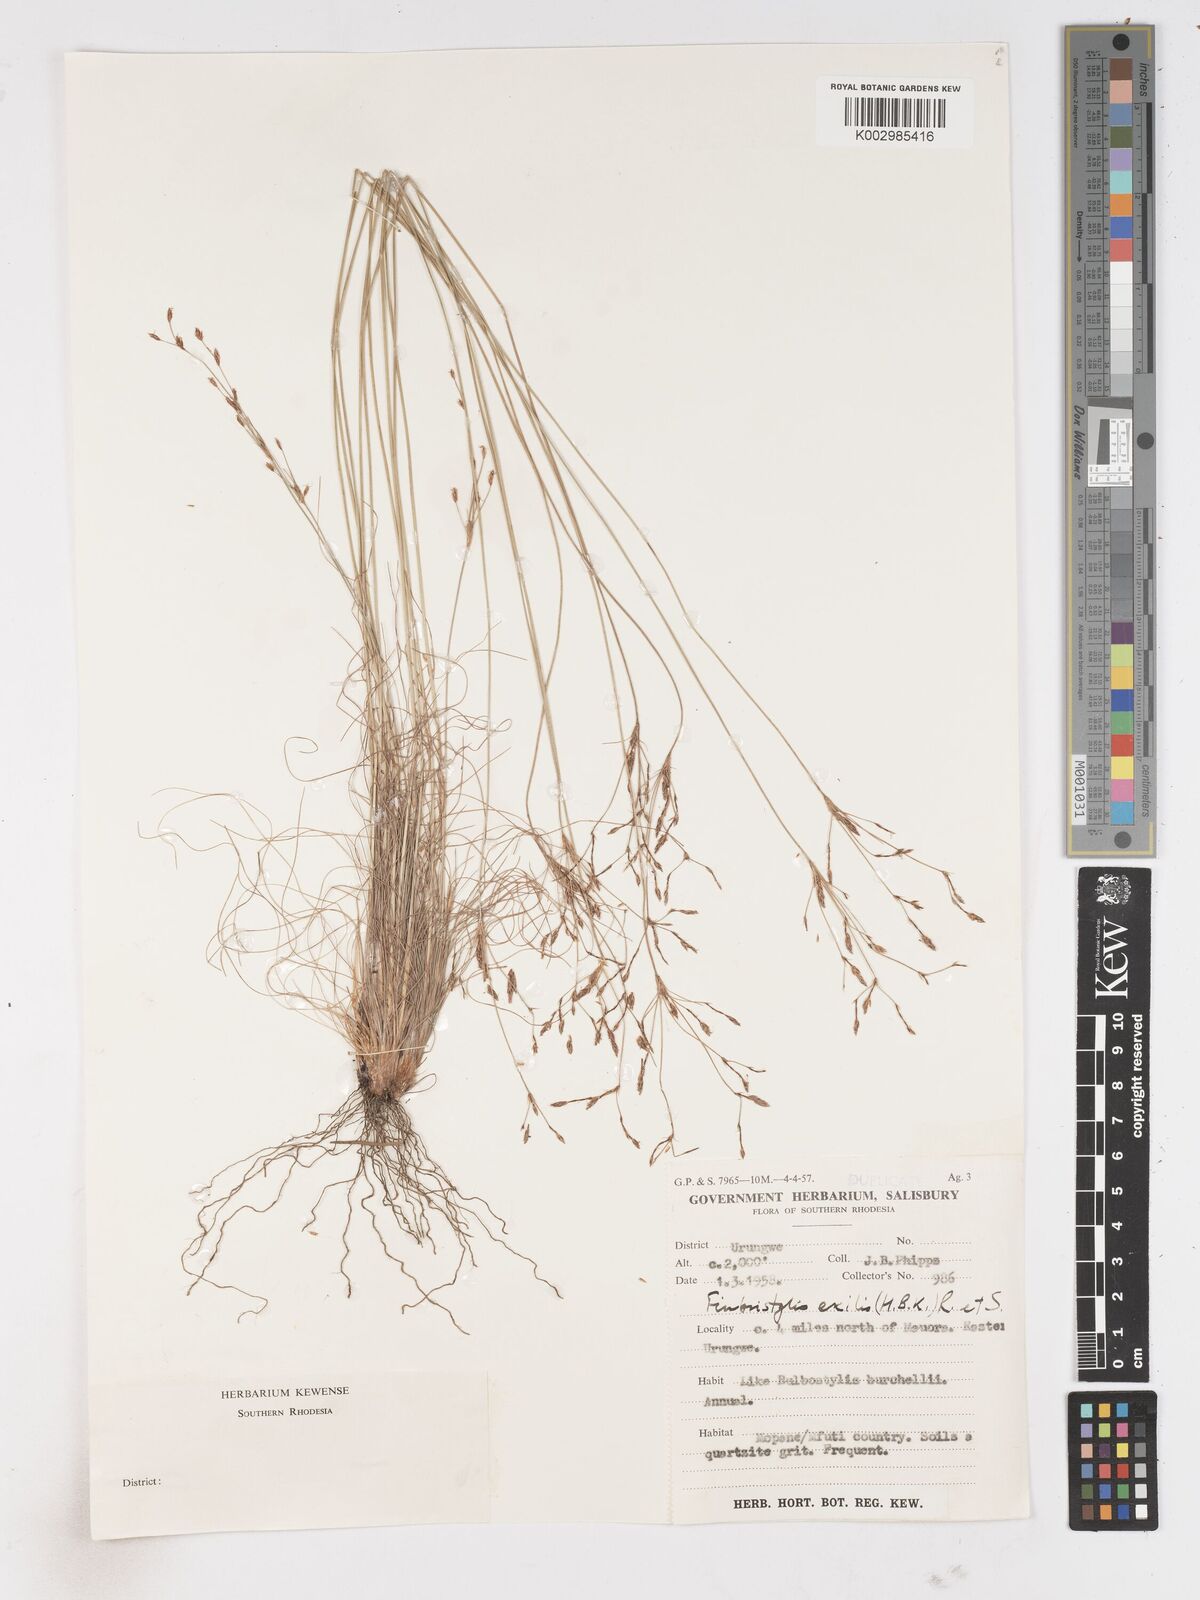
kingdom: Plantae
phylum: Tracheophyta
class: Liliopsida
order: Poales
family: Cyperaceae
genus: Fimbristylis
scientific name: Fimbristylis
